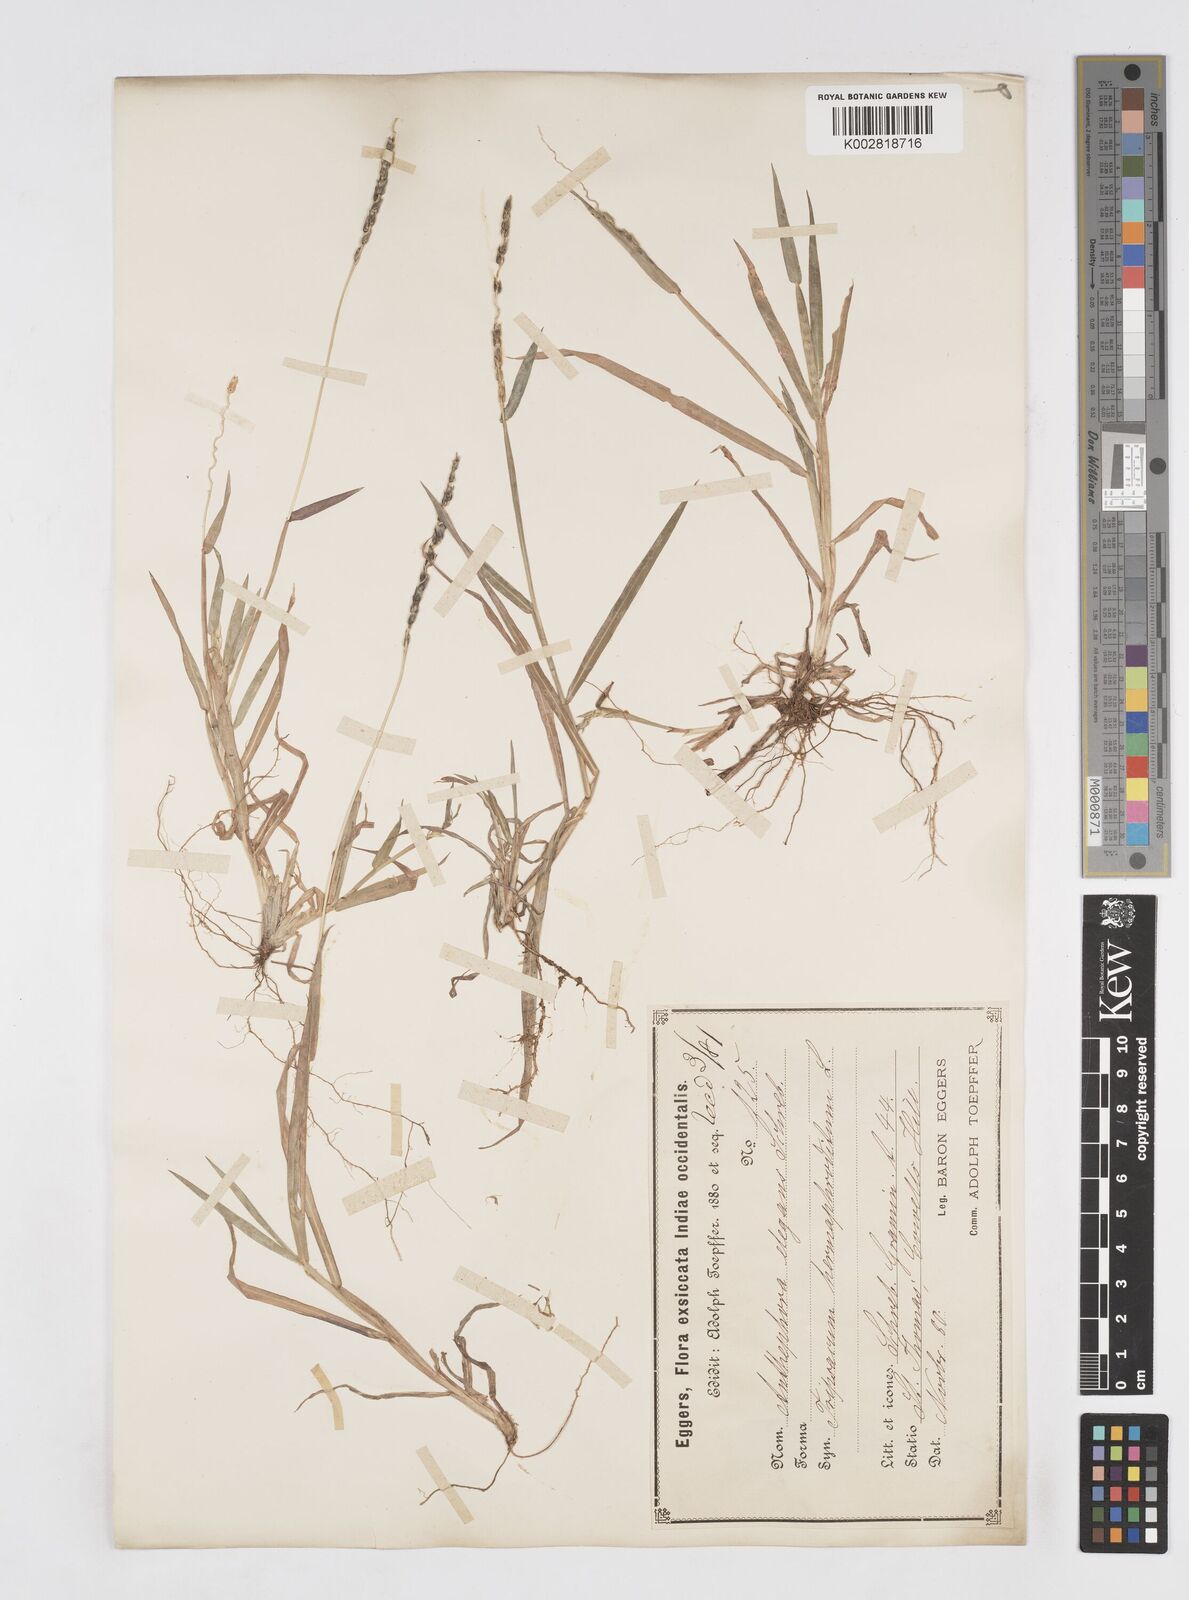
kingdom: Plantae
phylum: Tracheophyta
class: Liliopsida
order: Poales
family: Poaceae
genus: Anthephora
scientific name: Anthephora hermaphrodita
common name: Oldfield grass
